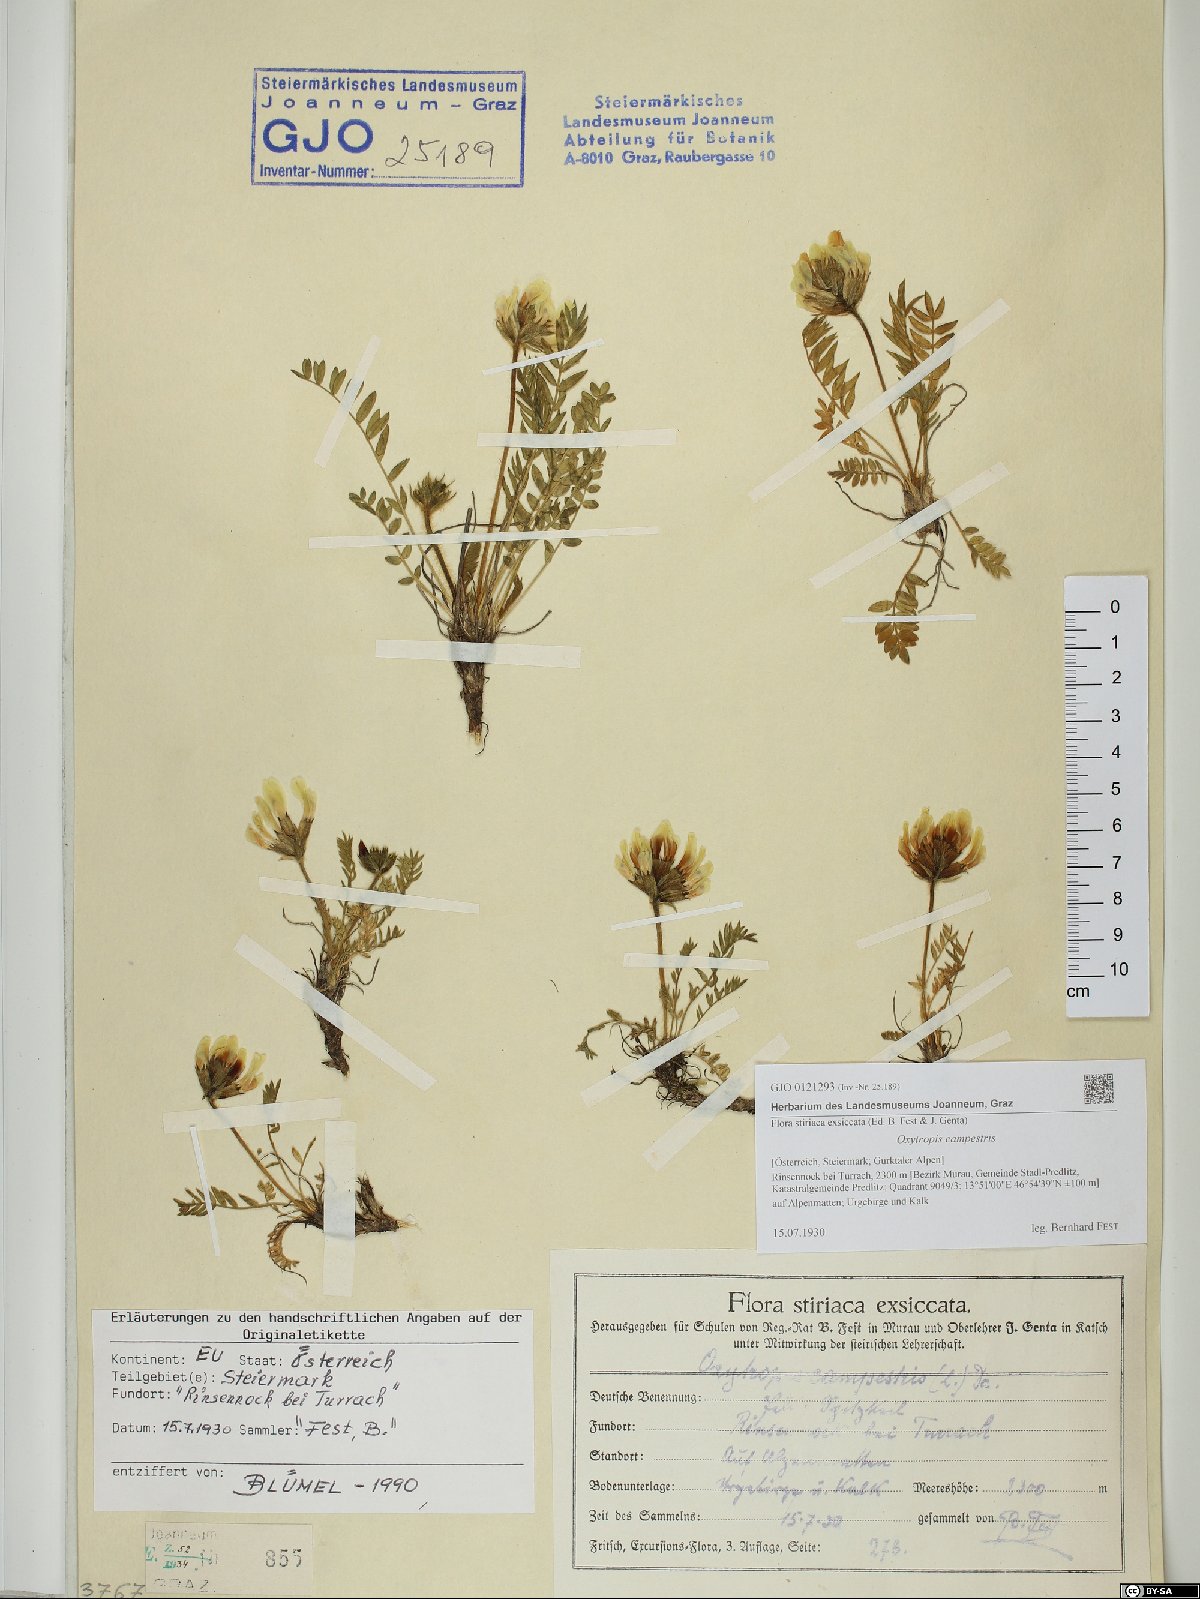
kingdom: Plantae
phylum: Tracheophyta
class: Magnoliopsida
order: Fabales
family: Fabaceae
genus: Oxytropis
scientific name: Oxytropis campestris
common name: Field locoweed
